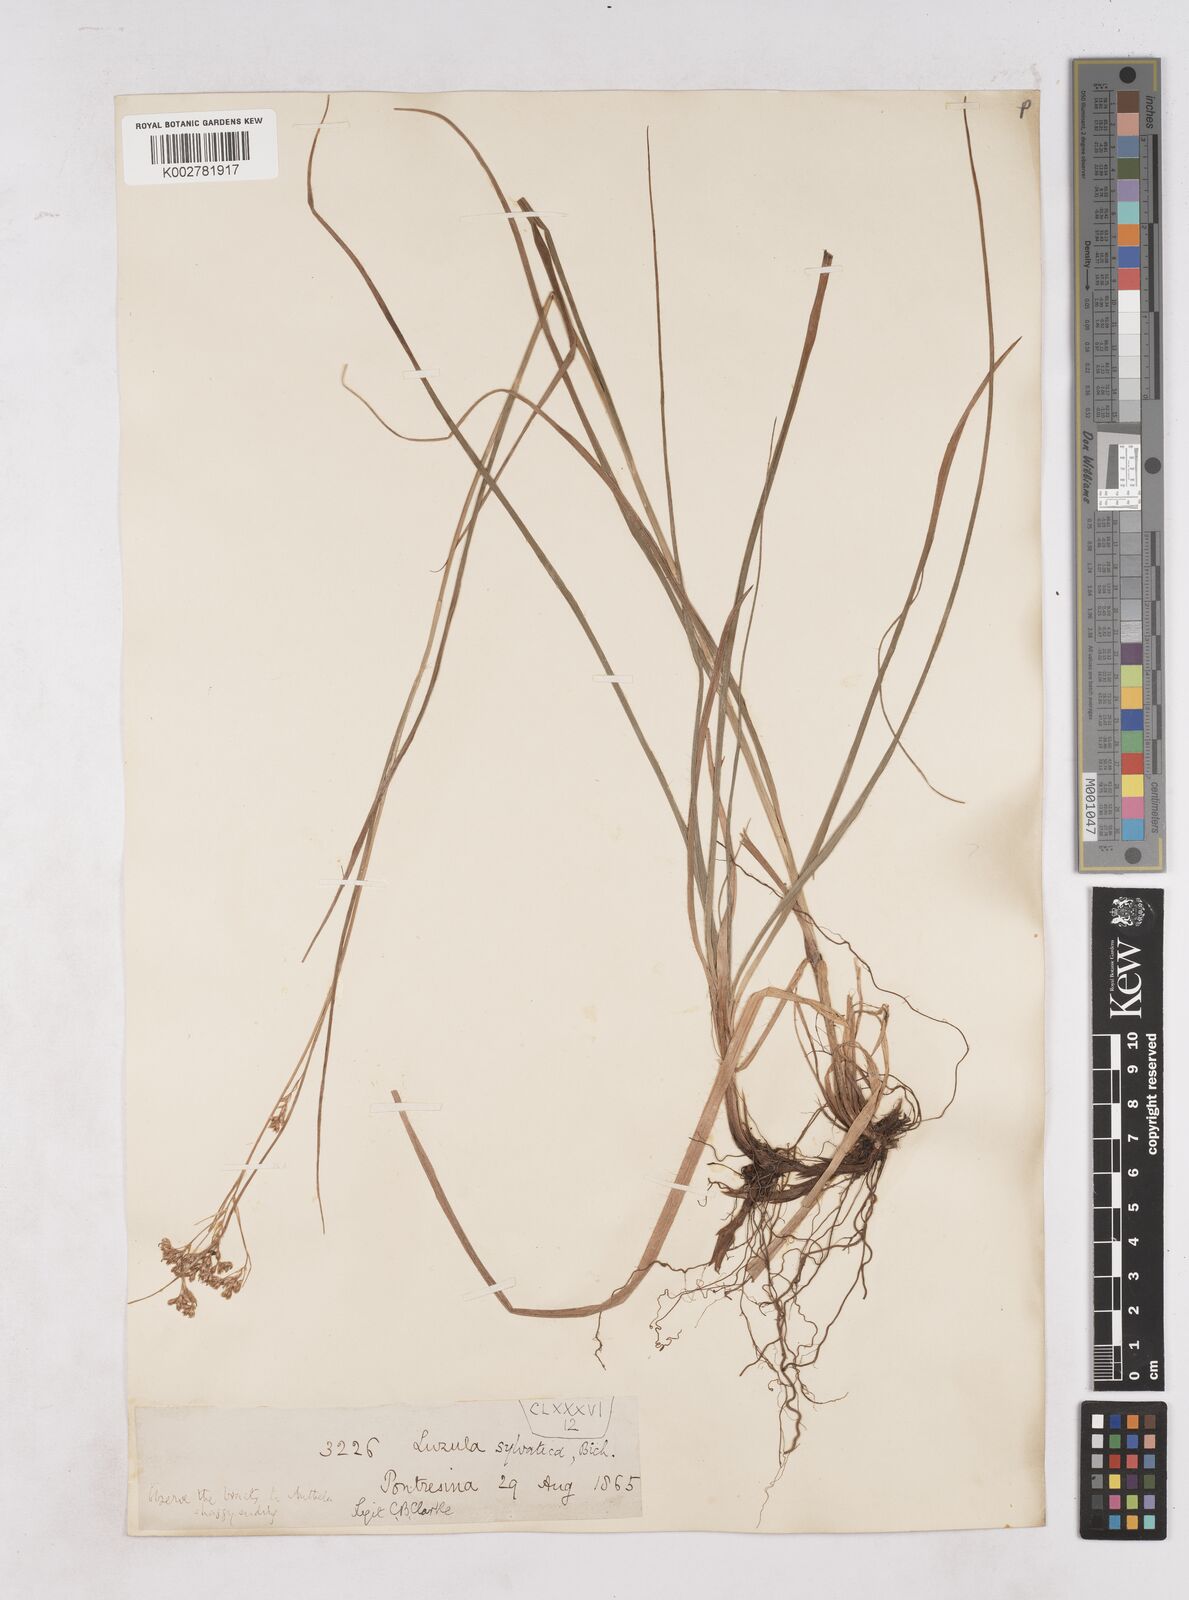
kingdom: Plantae
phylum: Tracheophyta
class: Liliopsida
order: Poales
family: Juncaceae
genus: Luzula
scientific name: Luzula sylvatica
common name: Great wood-rush
